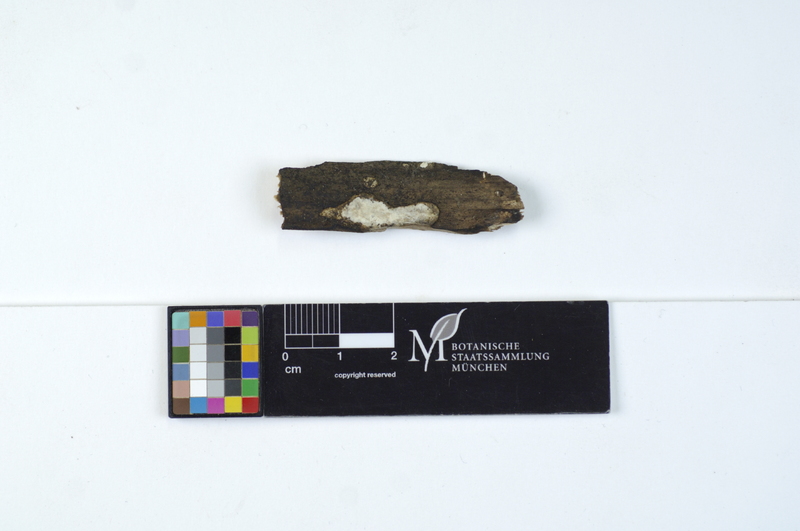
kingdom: Fungi
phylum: Basidiomycota
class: Agaricomycetes
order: Polyporales
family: Incrustoporiaceae
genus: Skeletocutis
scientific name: Skeletocutis nivea
